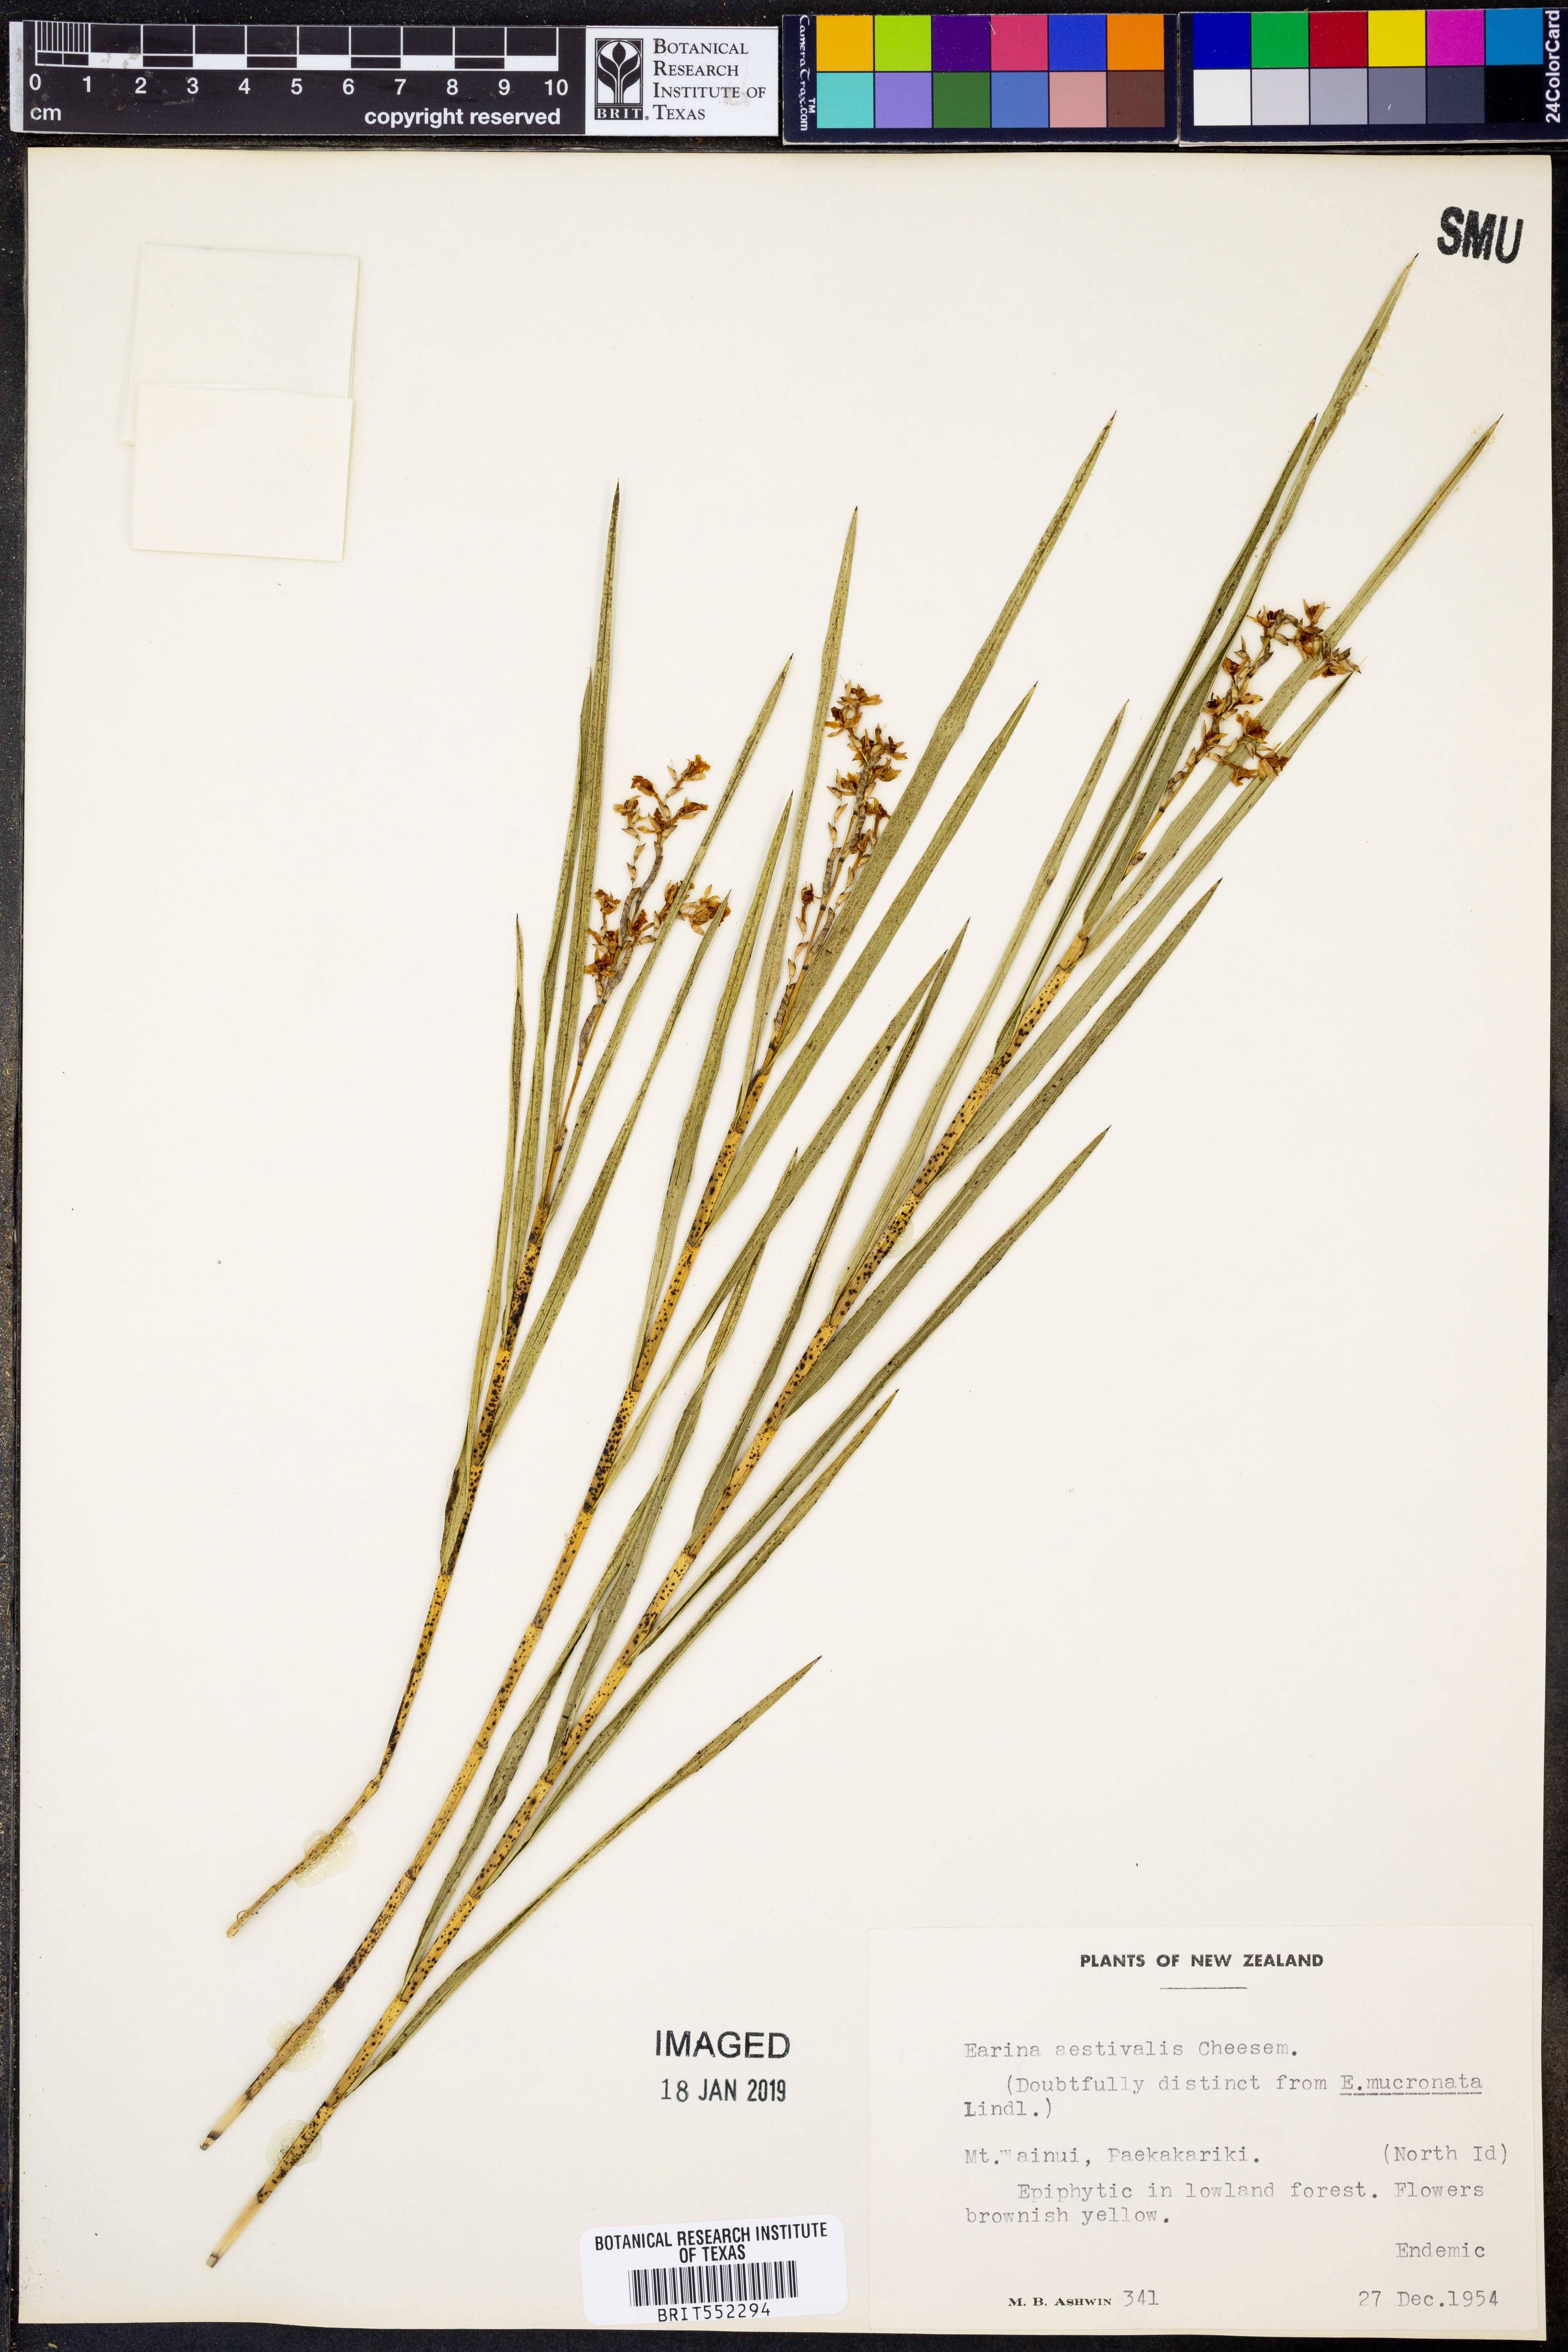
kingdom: Plantae
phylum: Tracheophyta
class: Liliopsida
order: Asparagales
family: Orchidaceae
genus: Earina
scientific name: Earina aestivalis
